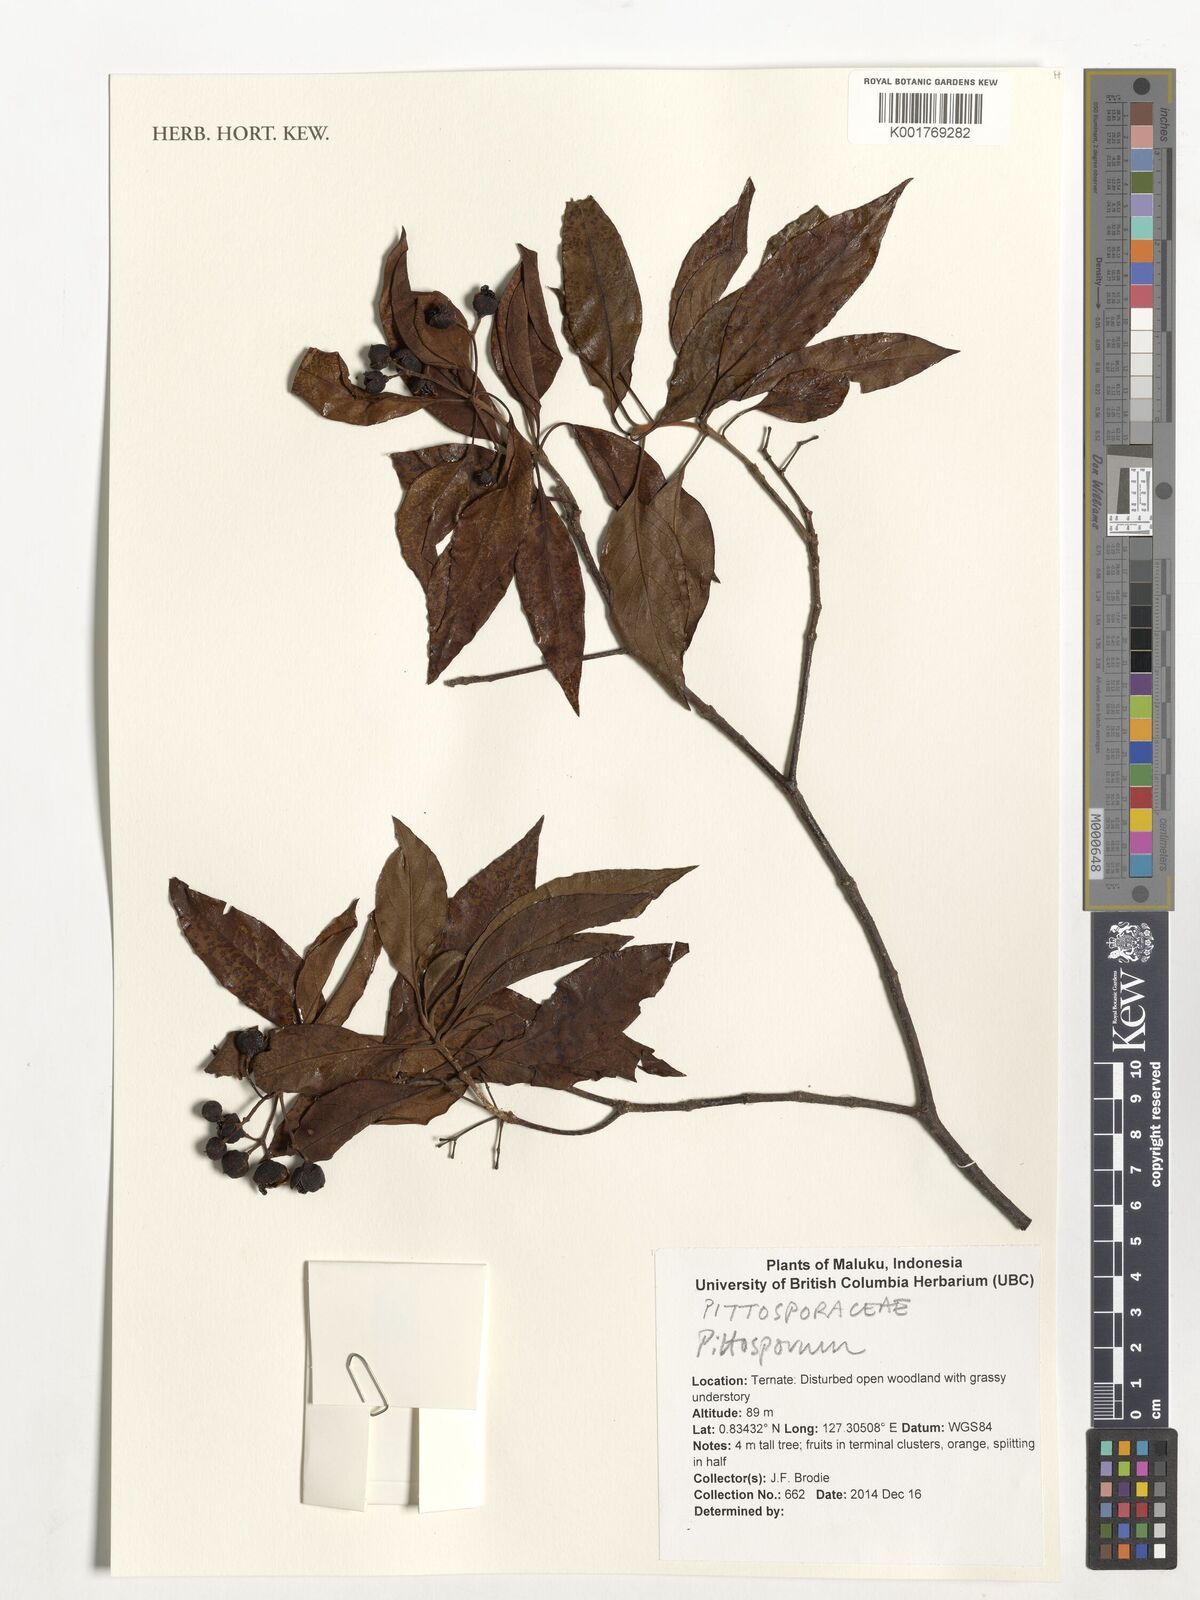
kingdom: Plantae
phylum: Tracheophyta
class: Magnoliopsida
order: Apiales
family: Pittosporaceae
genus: Pittosporum
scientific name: Pittosporum
